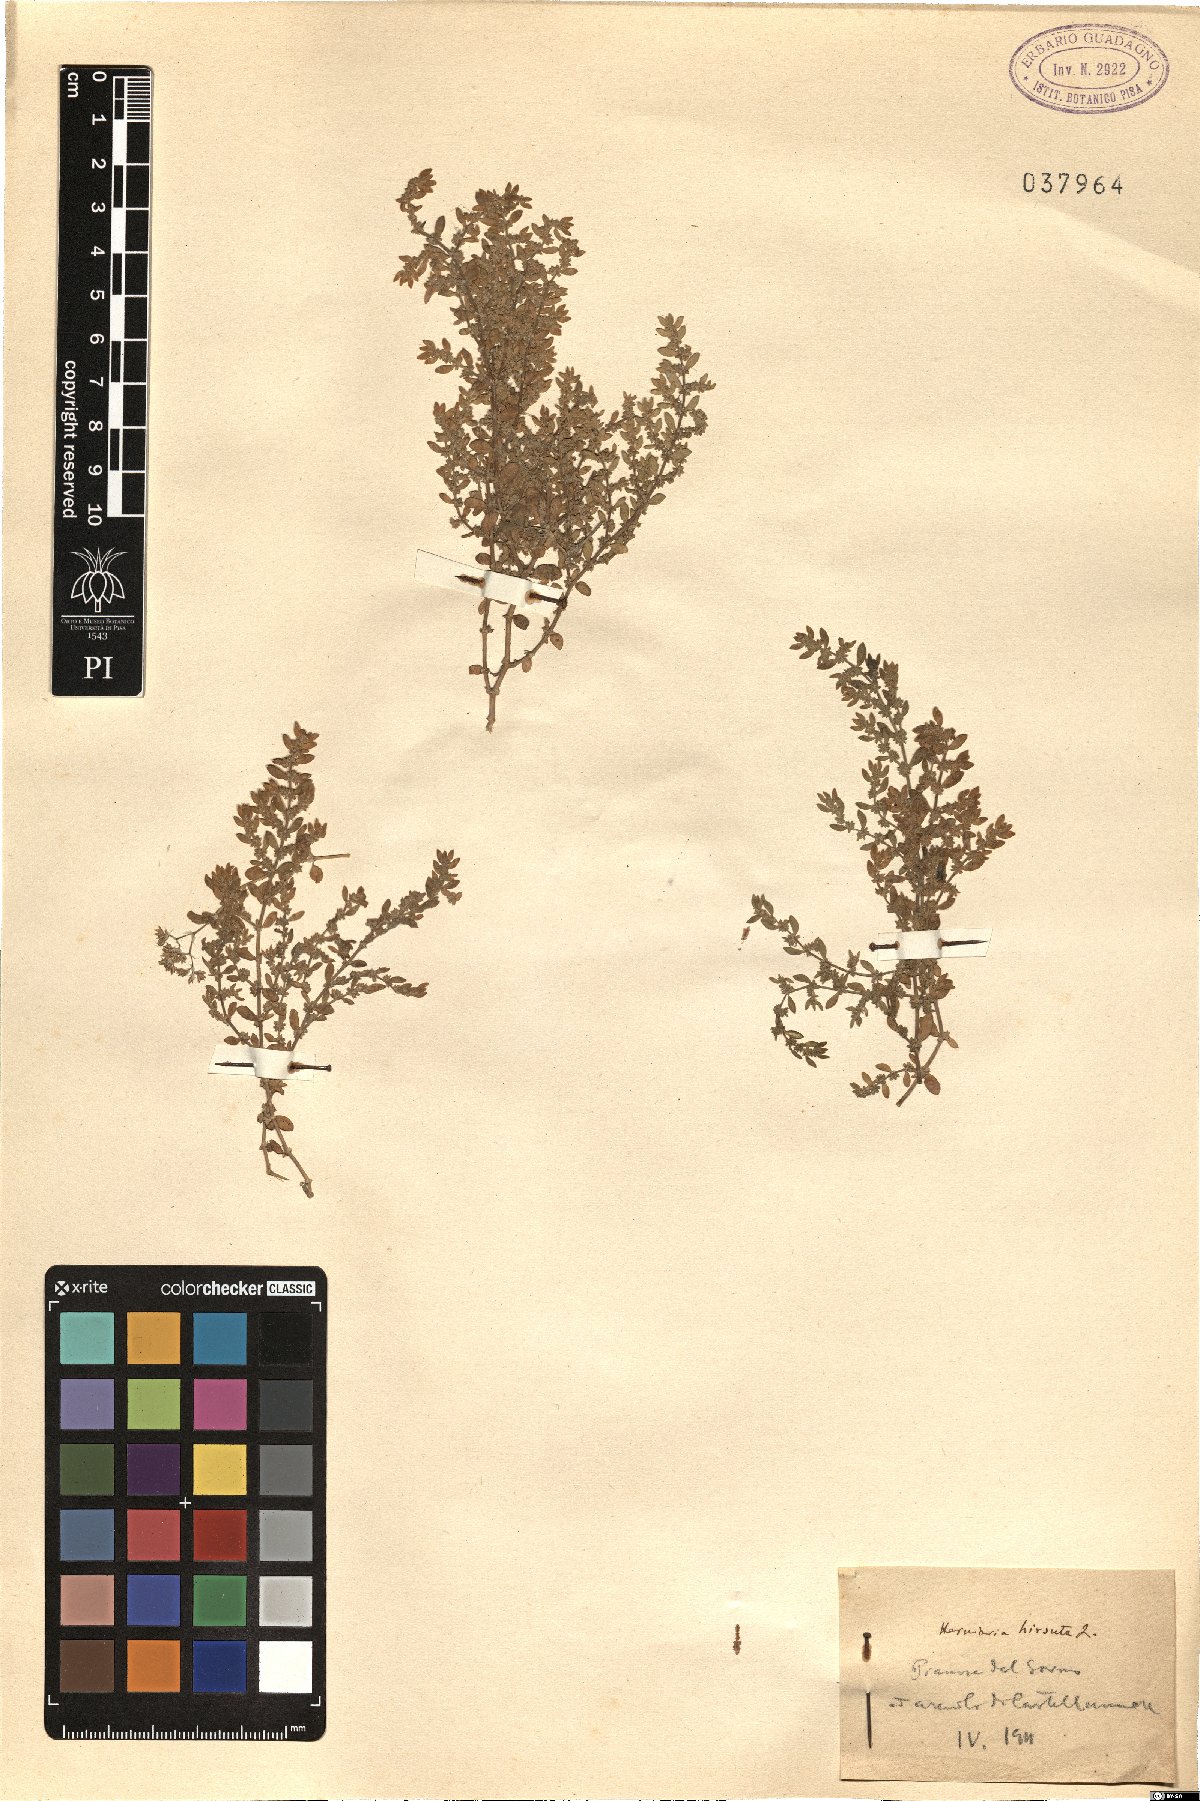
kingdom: Plantae
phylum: Tracheophyta
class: Magnoliopsida
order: Caryophyllales
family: Caryophyllaceae
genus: Herniaria
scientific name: Herniaria hirsuta
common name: Hairy rupturewort
